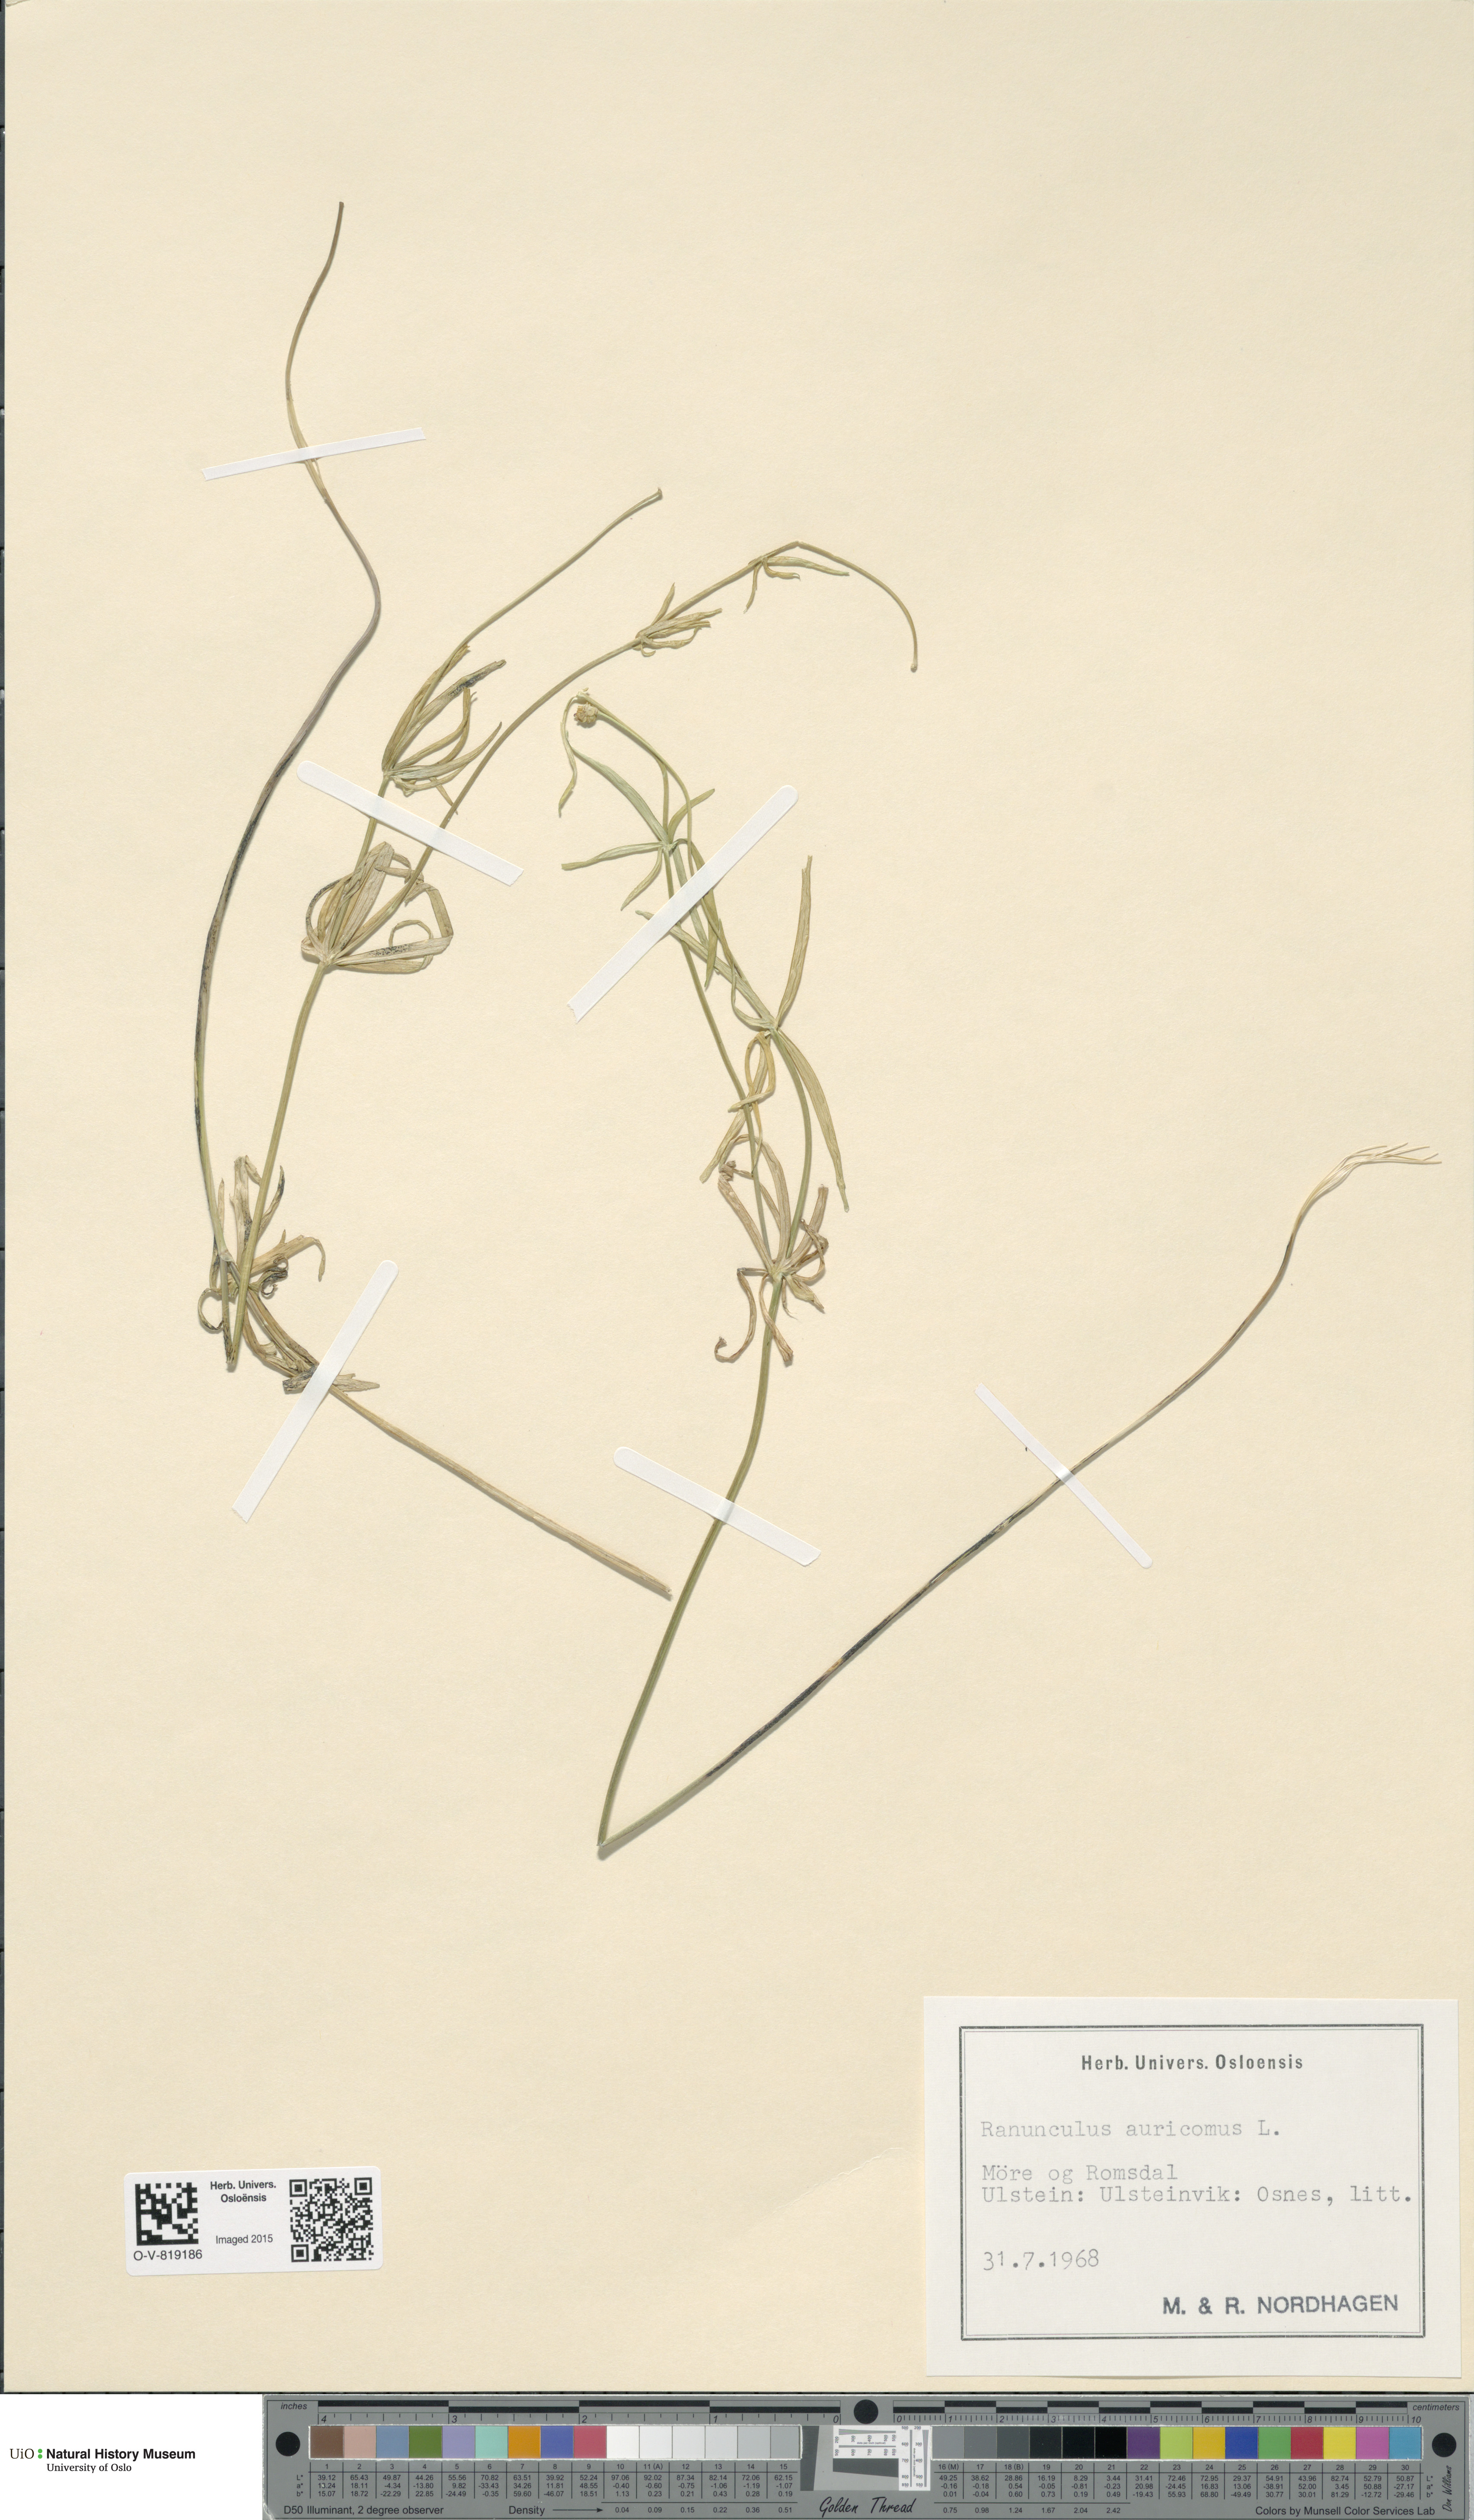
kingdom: Plantae
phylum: Tracheophyta
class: Magnoliopsida
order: Ranunculales
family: Ranunculaceae
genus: Ranunculus
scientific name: Ranunculus auricomus
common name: Goldilocks buttercup
